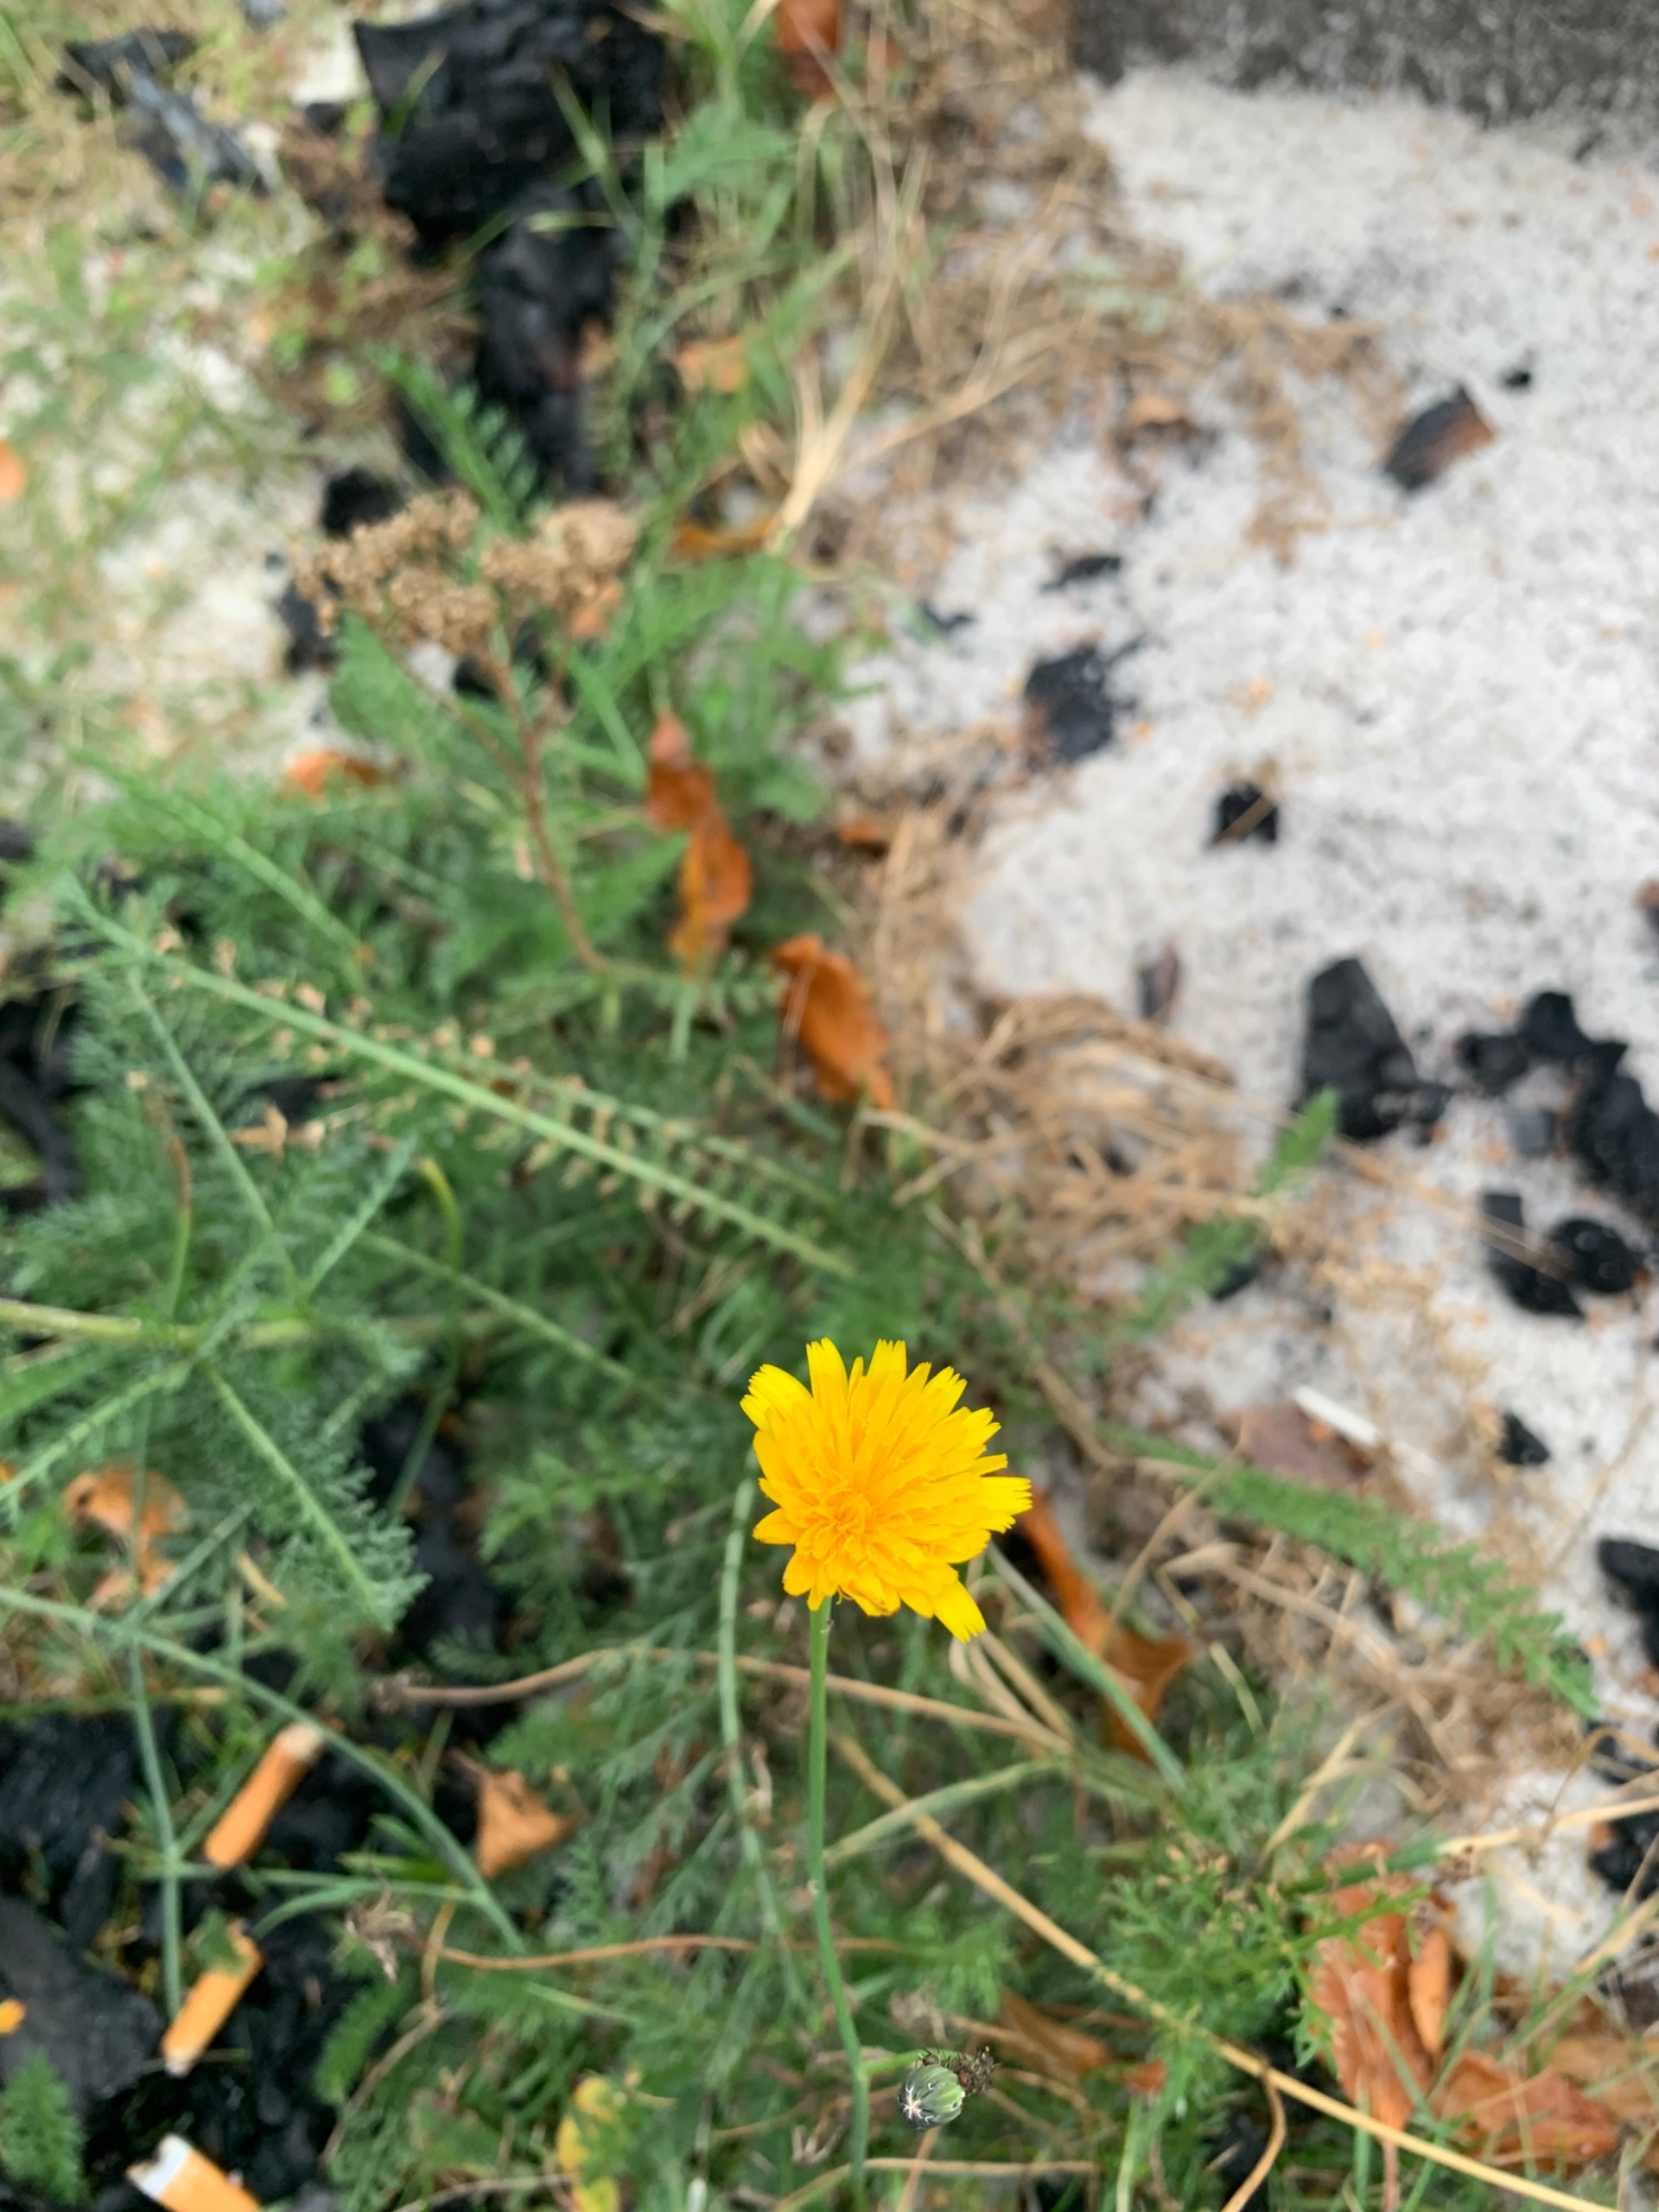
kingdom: Plantae
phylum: Tracheophyta
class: Magnoliopsida
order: Asterales
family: Asteraceae
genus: Hypochaeris
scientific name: Hypochaeris radicata
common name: Almindelig kongepen
